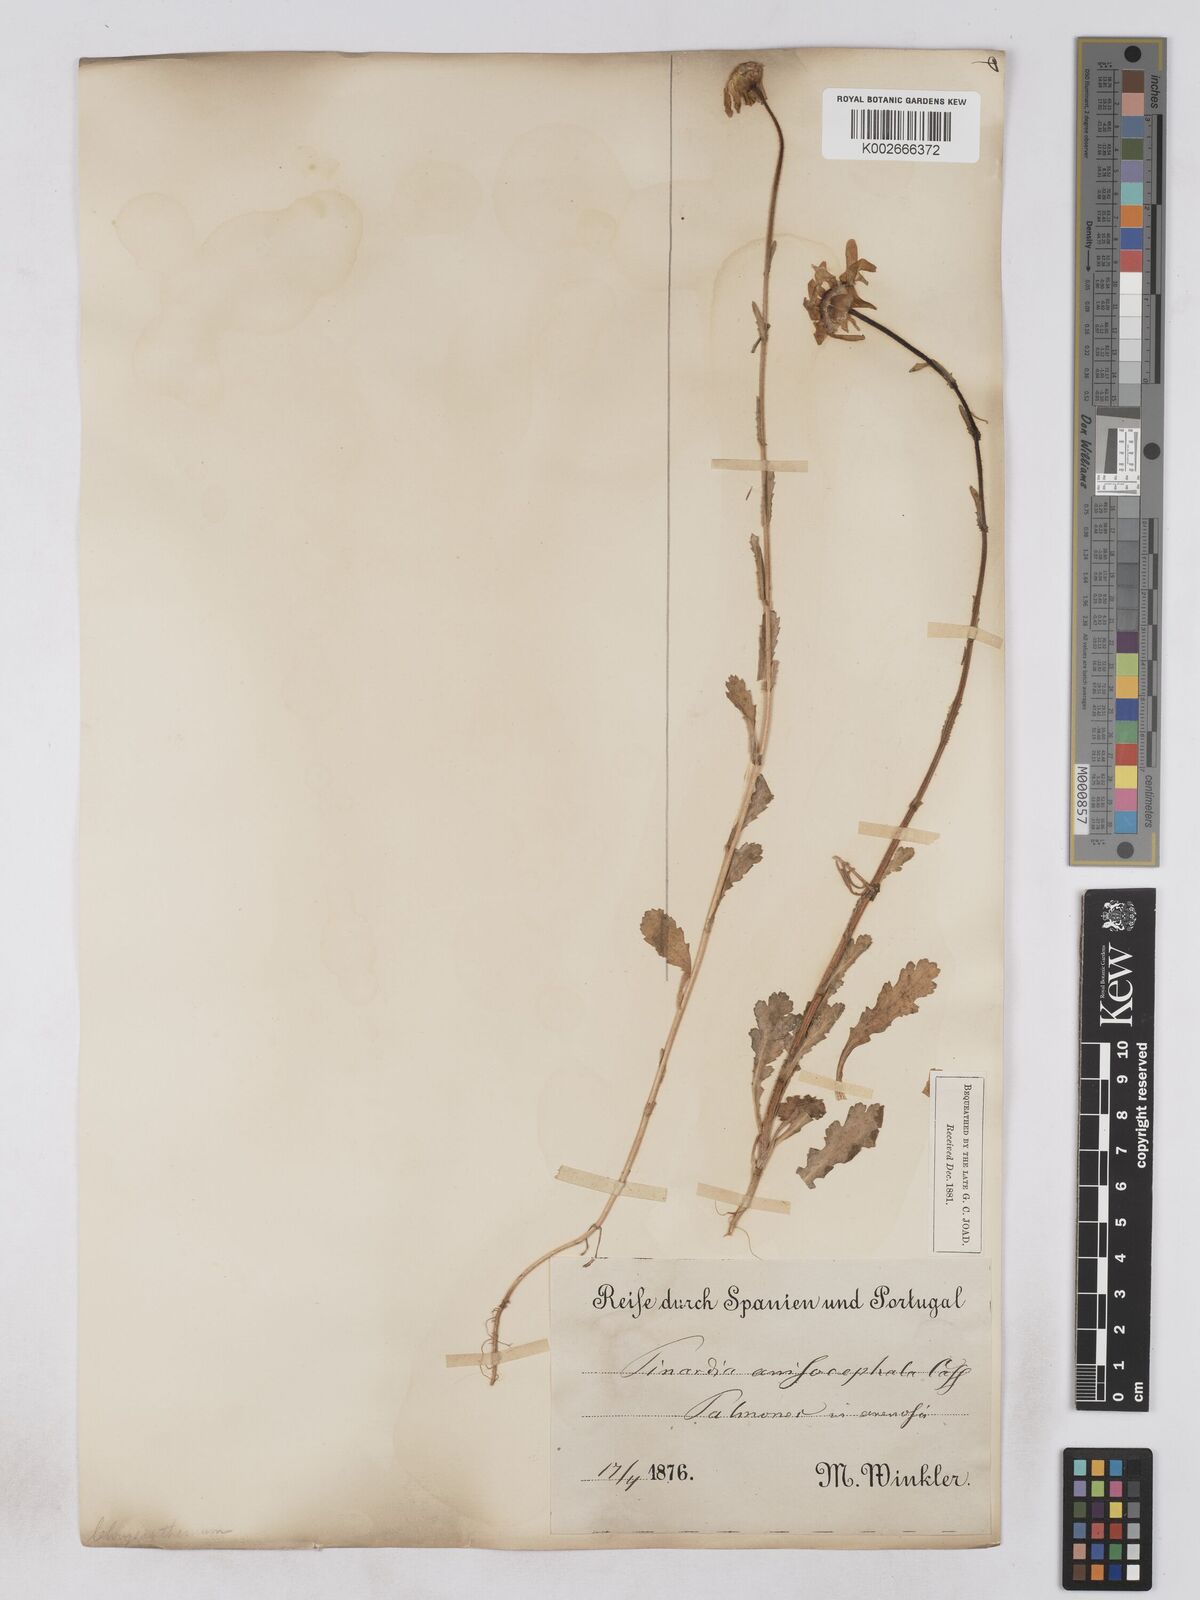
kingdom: Plantae
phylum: Tracheophyta
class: Magnoliopsida
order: Asterales
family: Asteraceae
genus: Heteranthemis
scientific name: Heteranthemis
